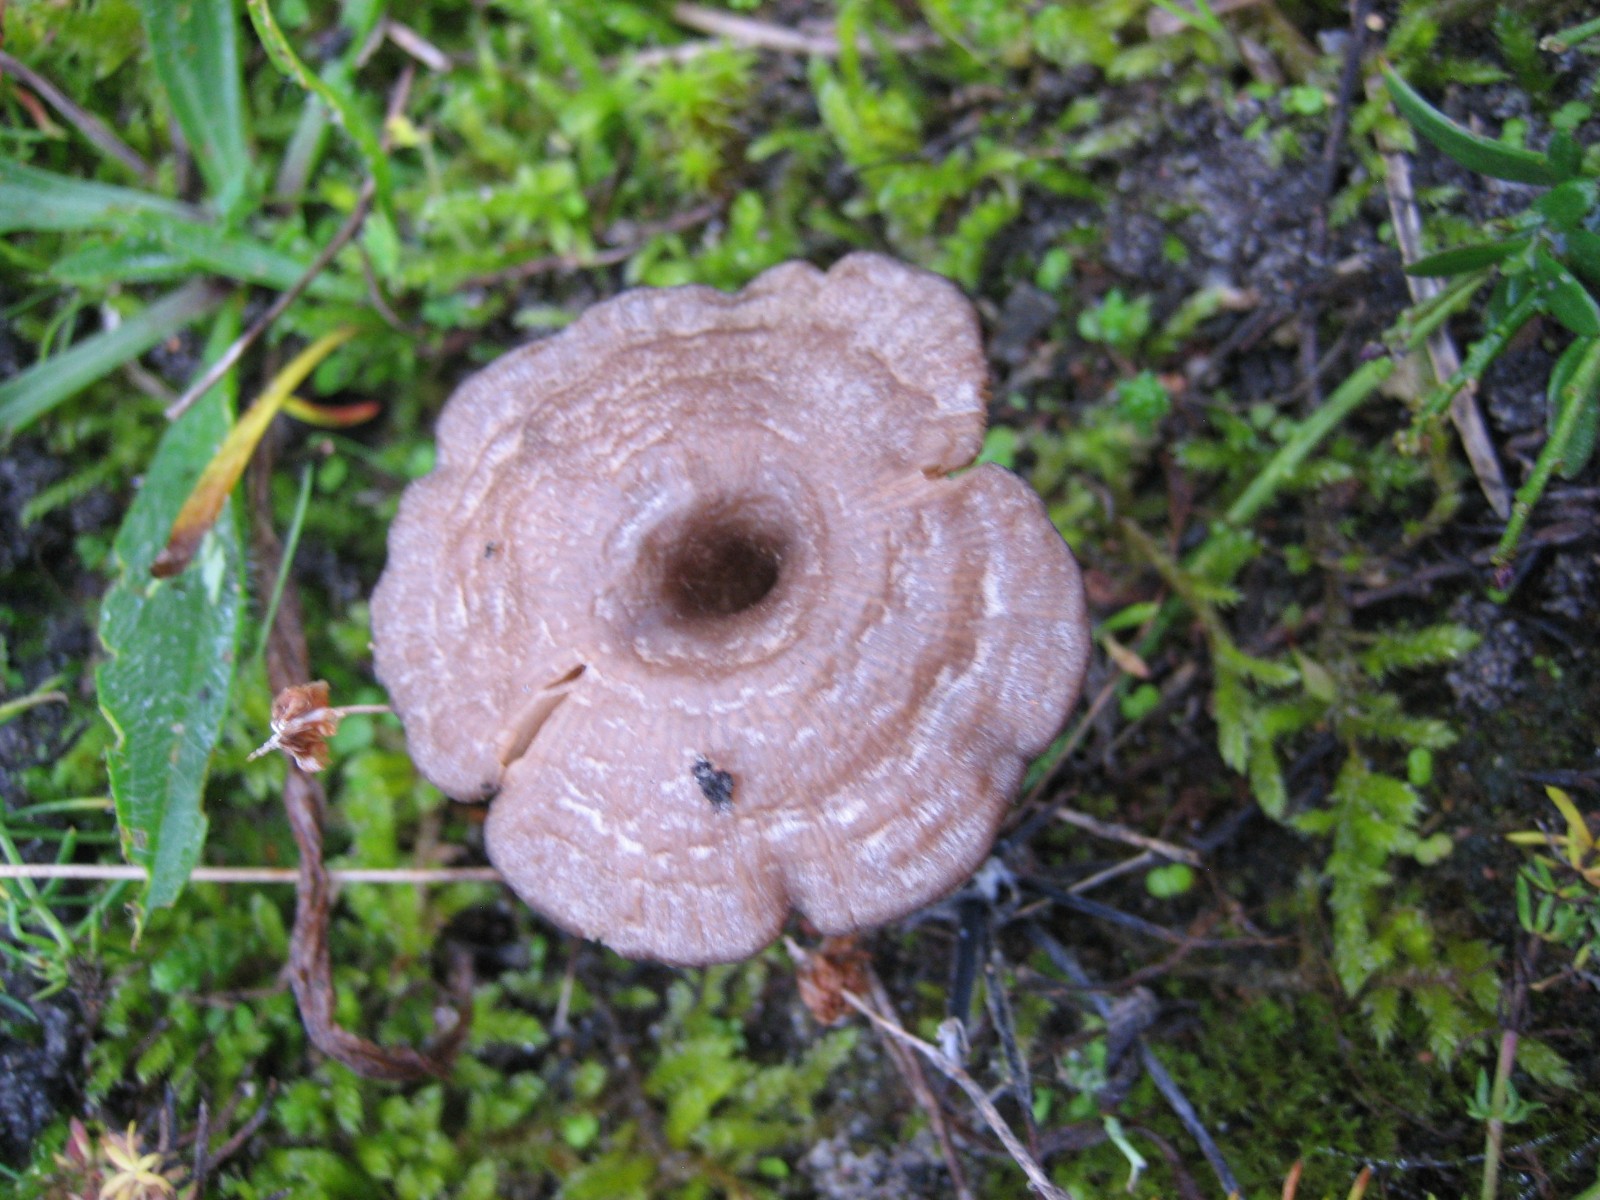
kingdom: Fungi
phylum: Basidiomycota
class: Agaricomycetes
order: Agaricales
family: Entolomataceae
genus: Entoloma
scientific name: Entoloma undatum
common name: bæltet rødblad
